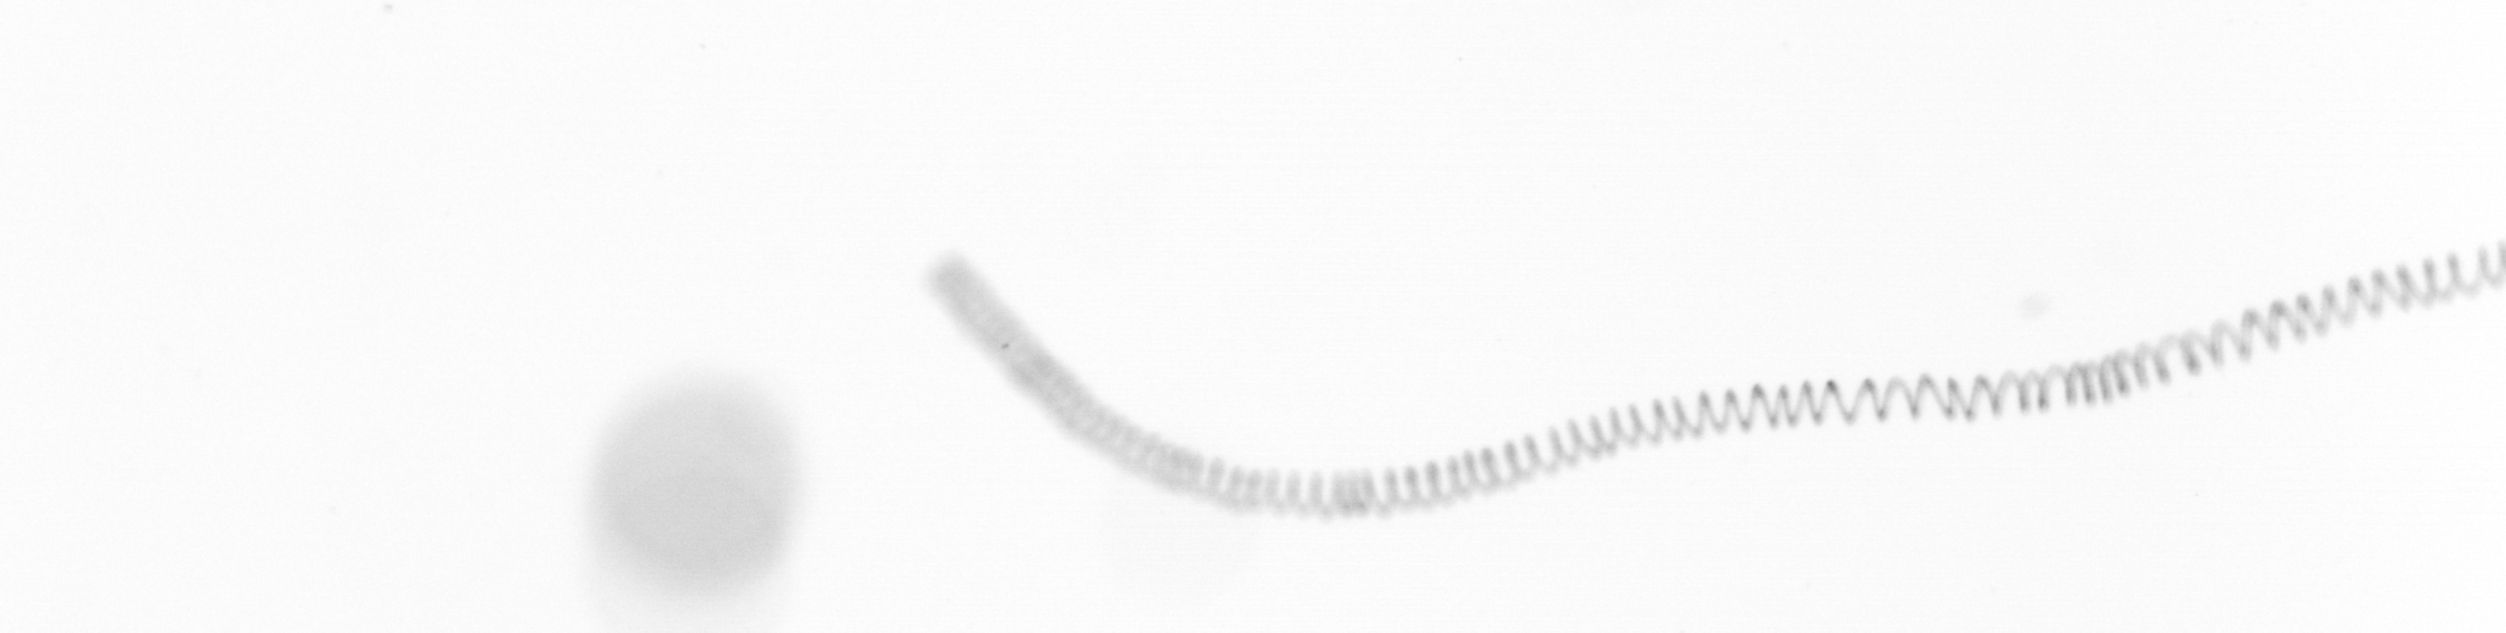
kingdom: Chromista
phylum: Ochrophyta
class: Bacillariophyceae
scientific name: Bacillariophyceae
